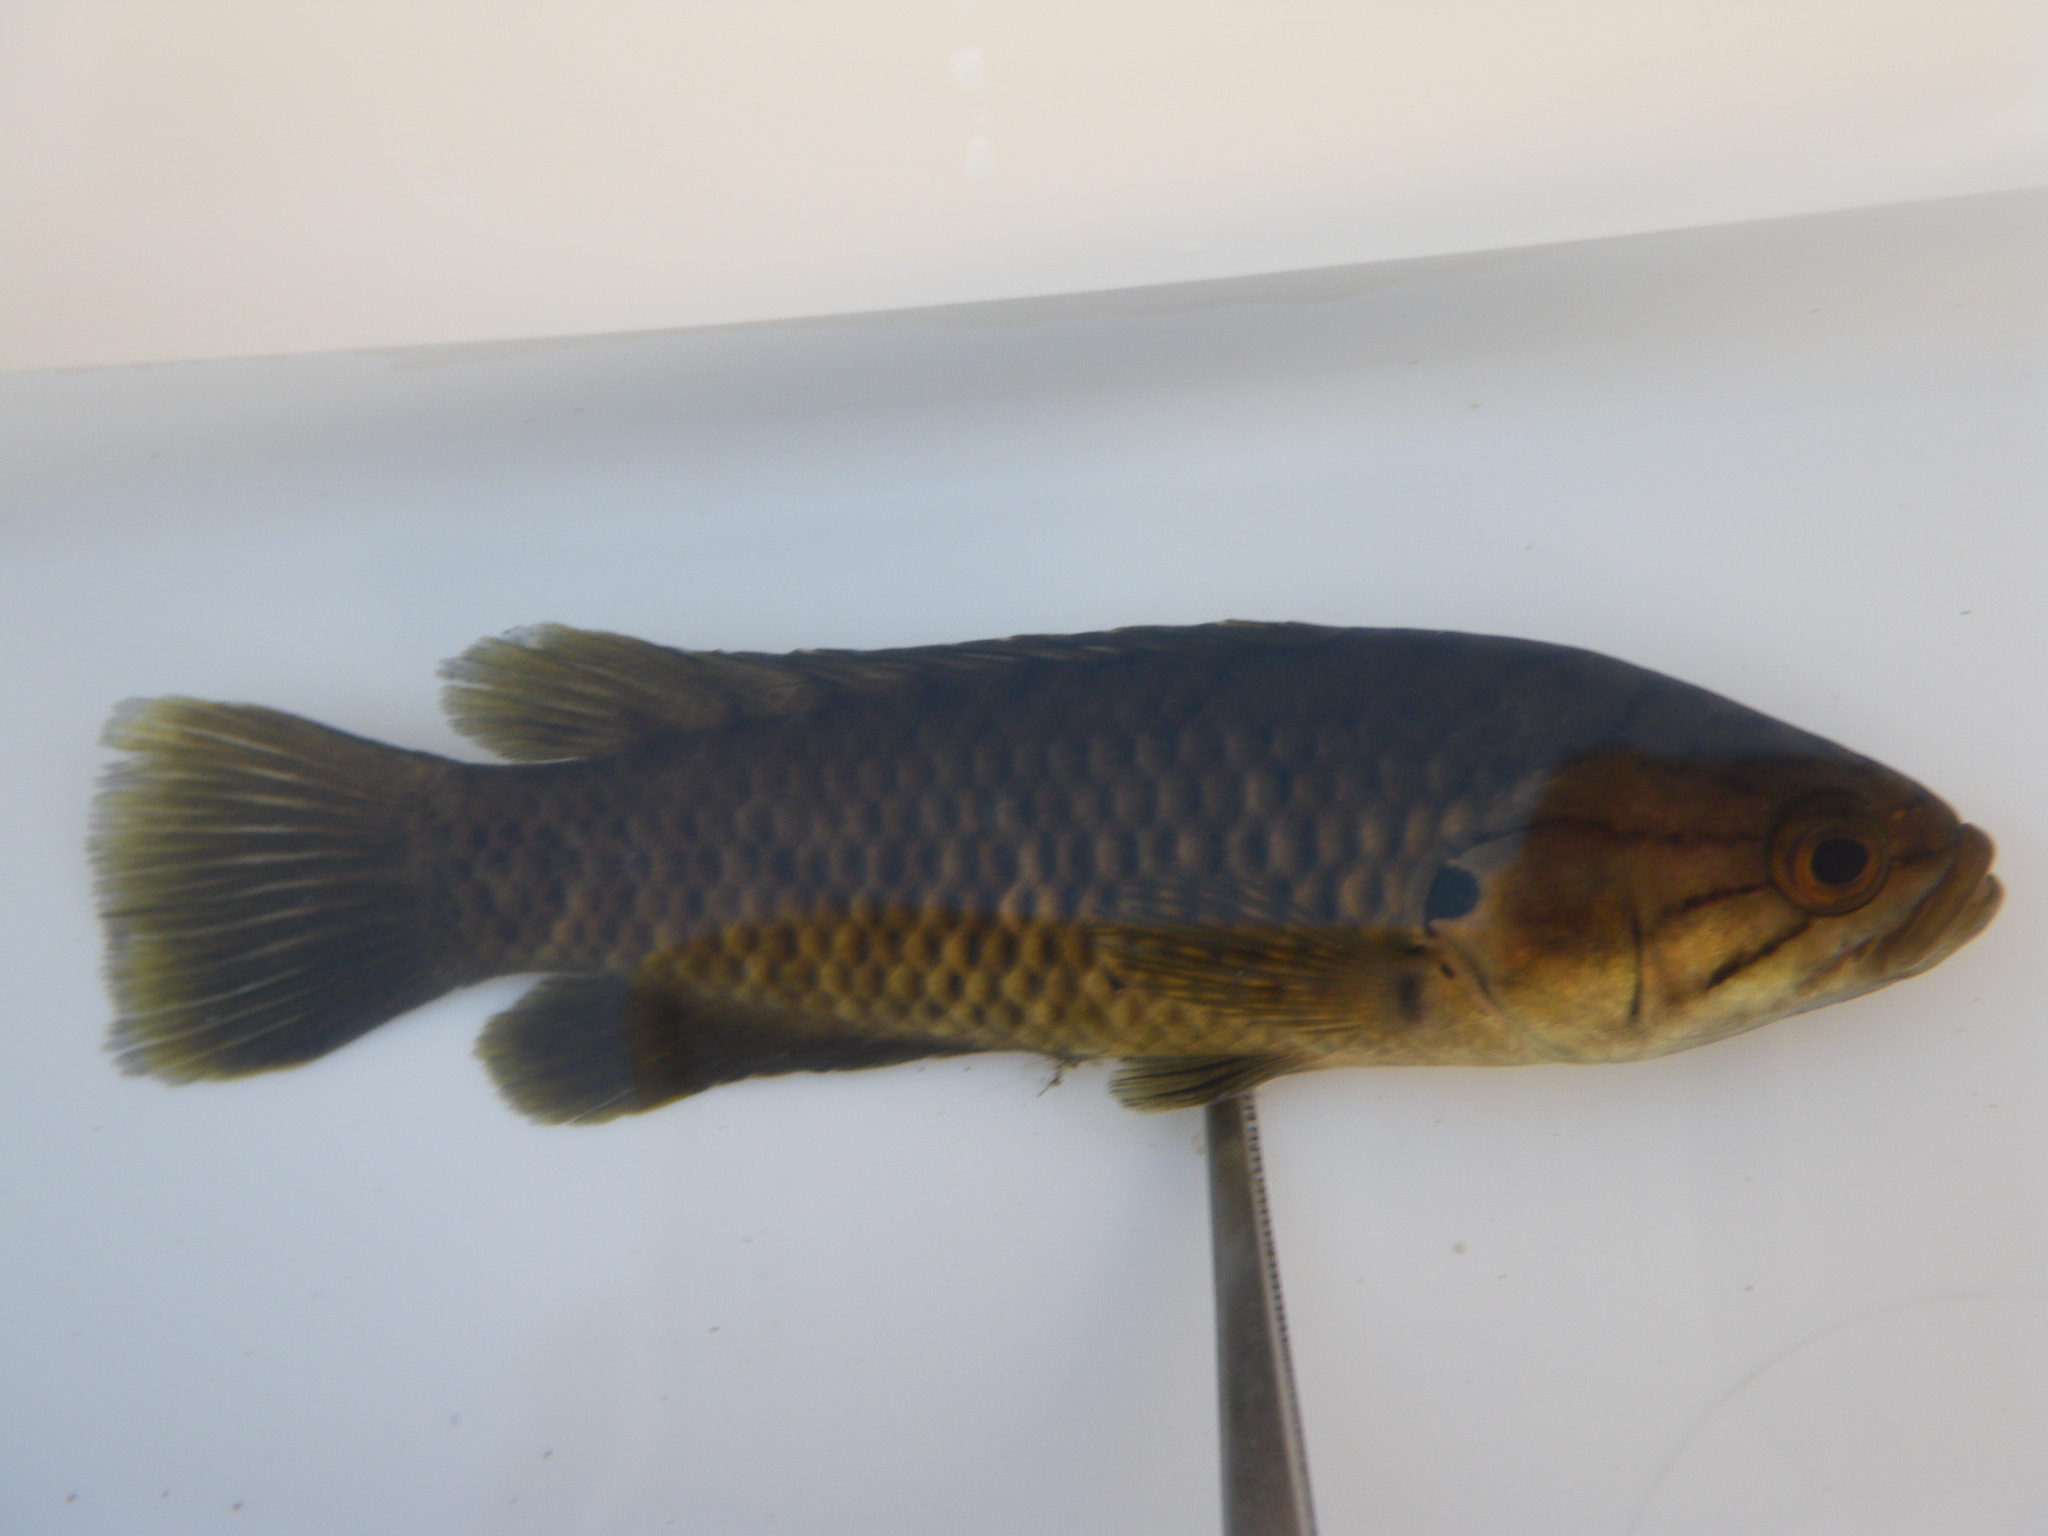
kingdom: Animalia
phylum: Chordata
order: Perciformes
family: Anabantidae
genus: Sandelia
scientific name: Sandelia capensis
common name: Cape kurper
